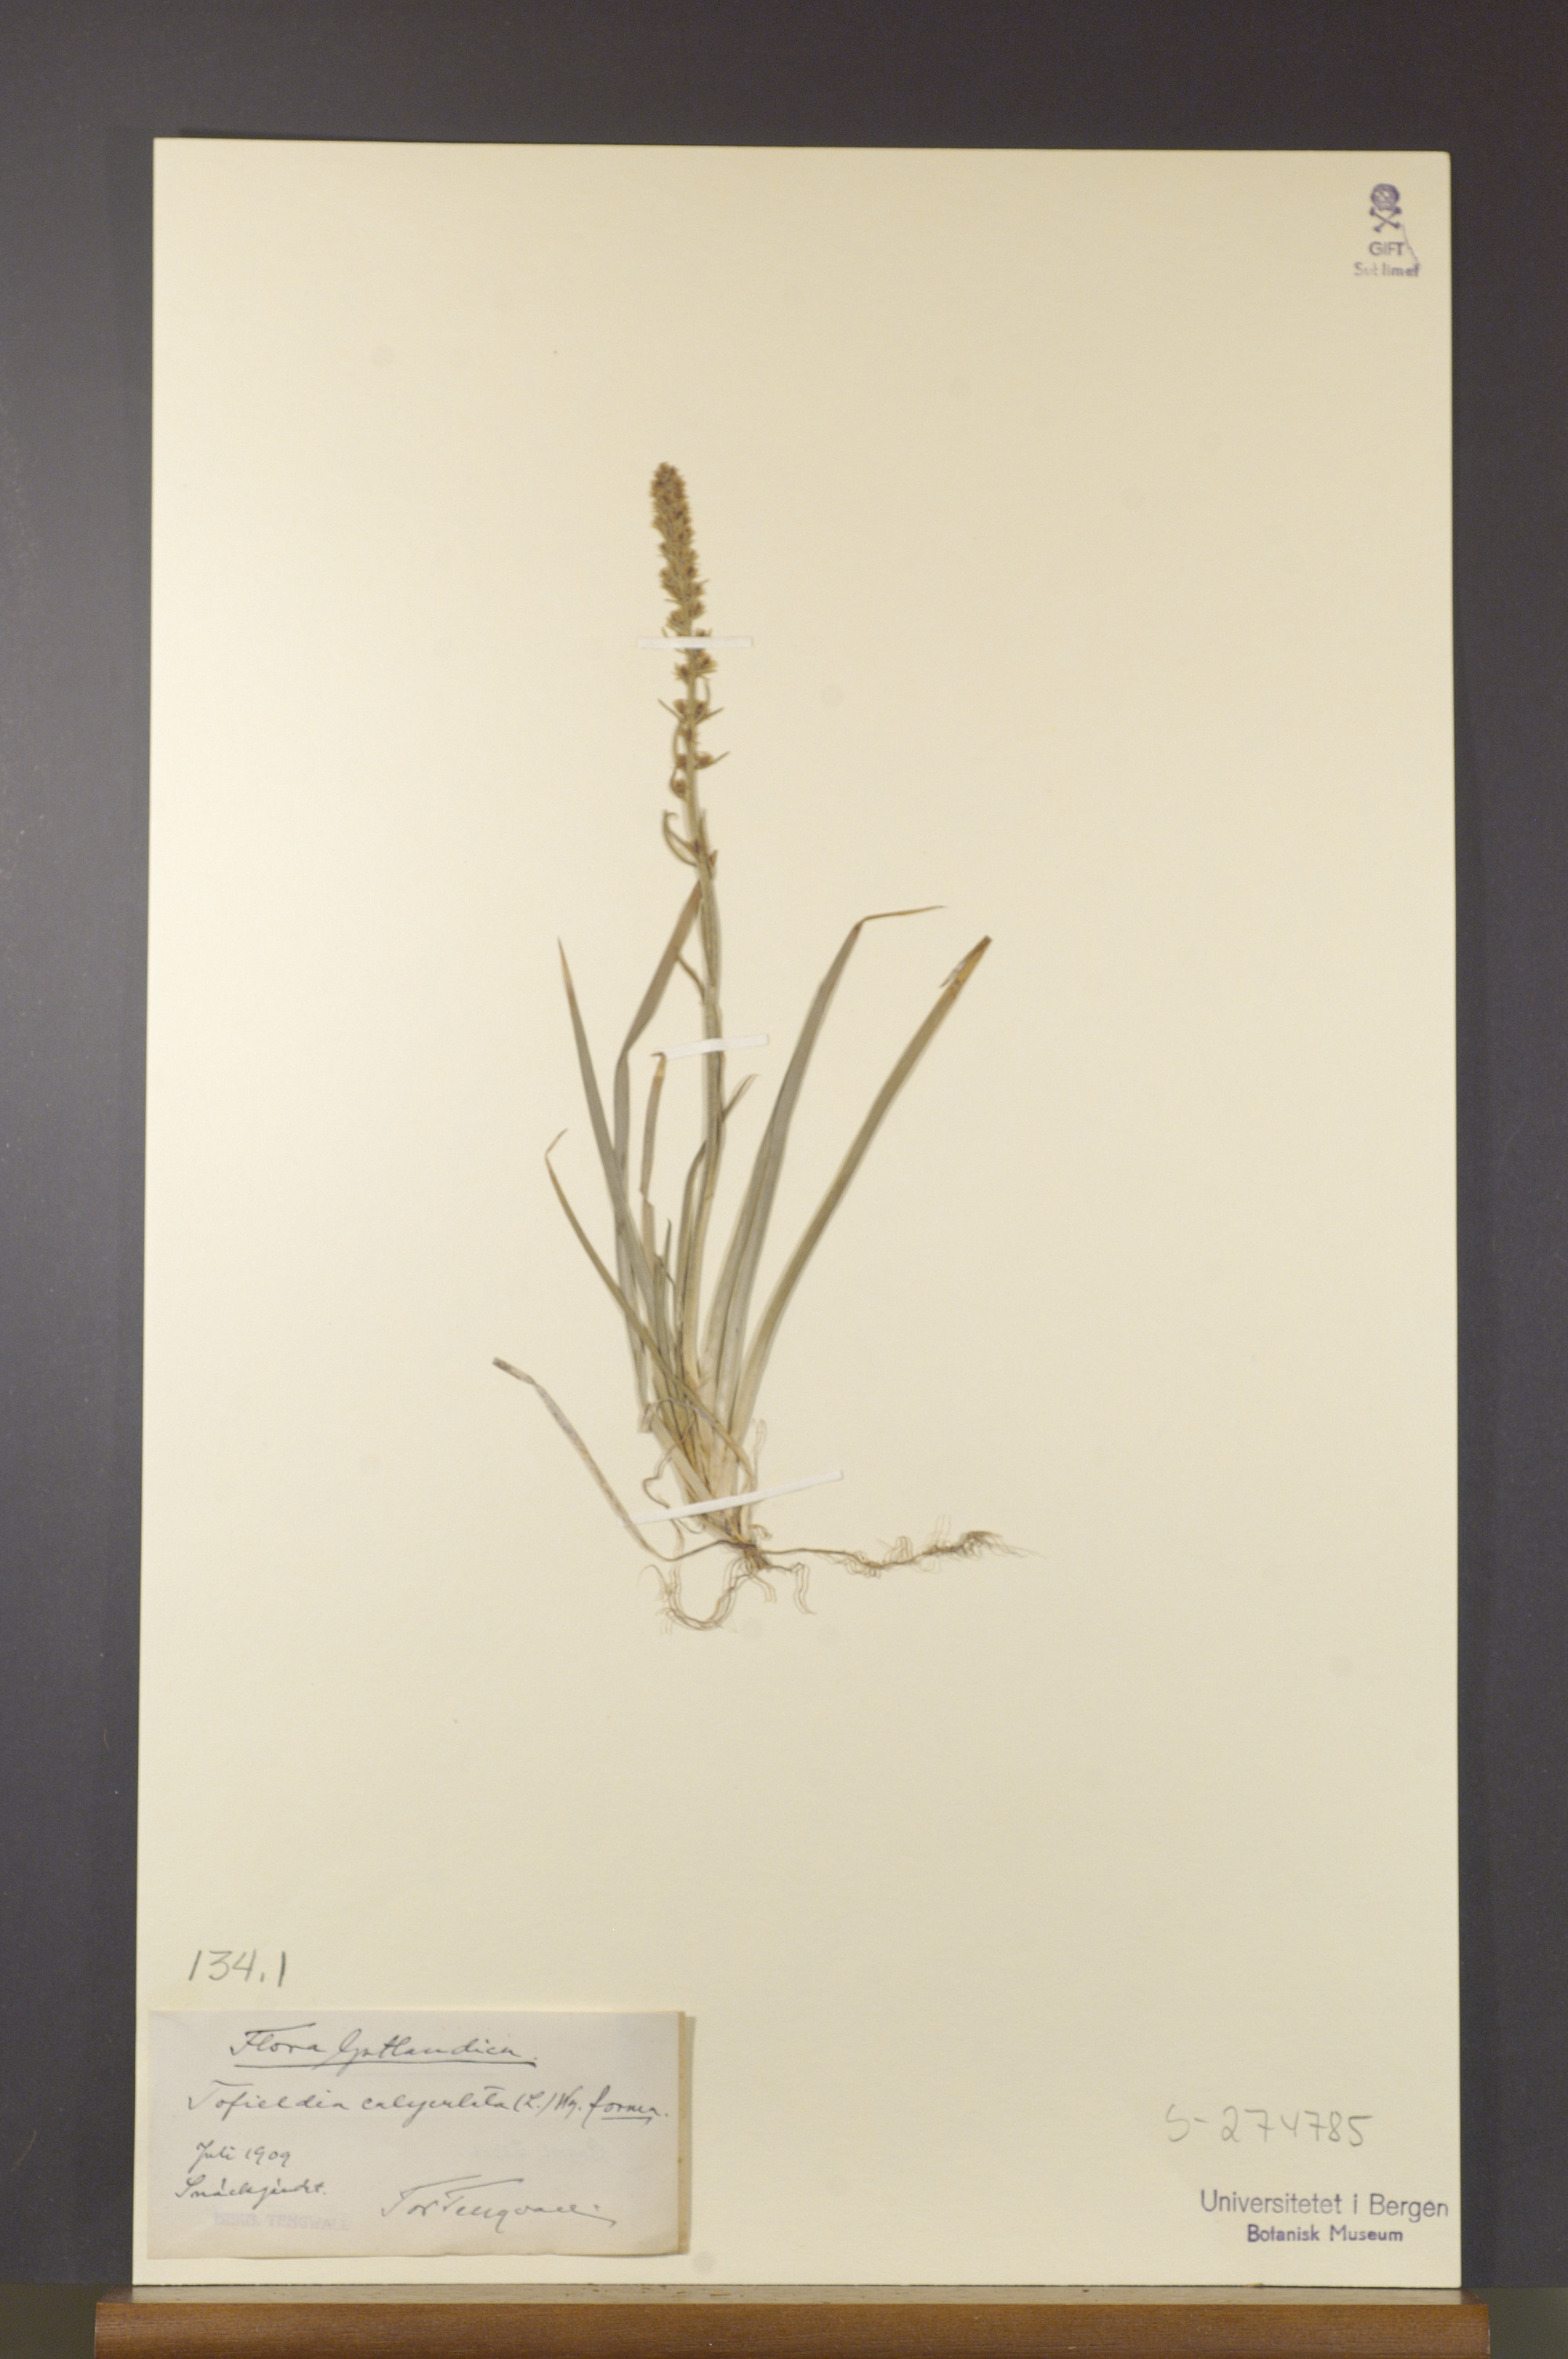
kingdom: Plantae
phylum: Tracheophyta
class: Liliopsida
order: Alismatales
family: Tofieldiaceae
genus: Tofieldia
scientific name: Tofieldia calyculata
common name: German-asphodel
